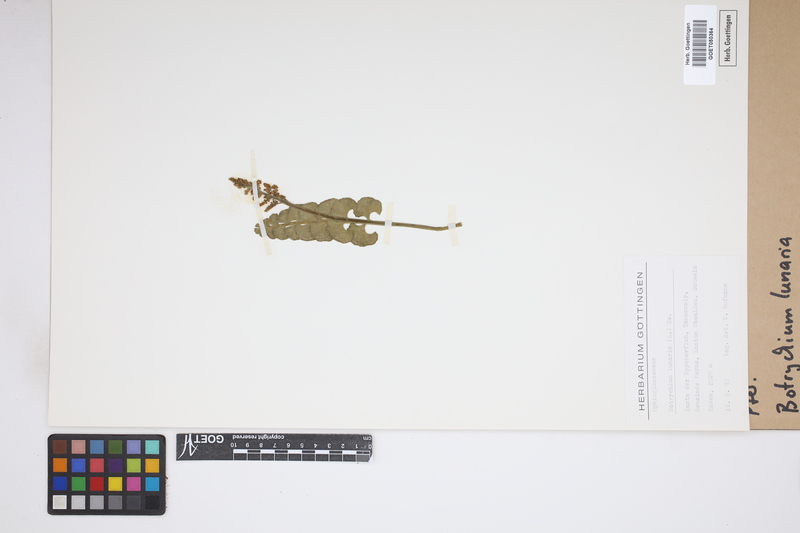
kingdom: Plantae
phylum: Tracheophyta
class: Polypodiopsida
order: Ophioglossales
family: Ophioglossaceae
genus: Botrychium
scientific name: Botrychium lunaria
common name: Moonwort
